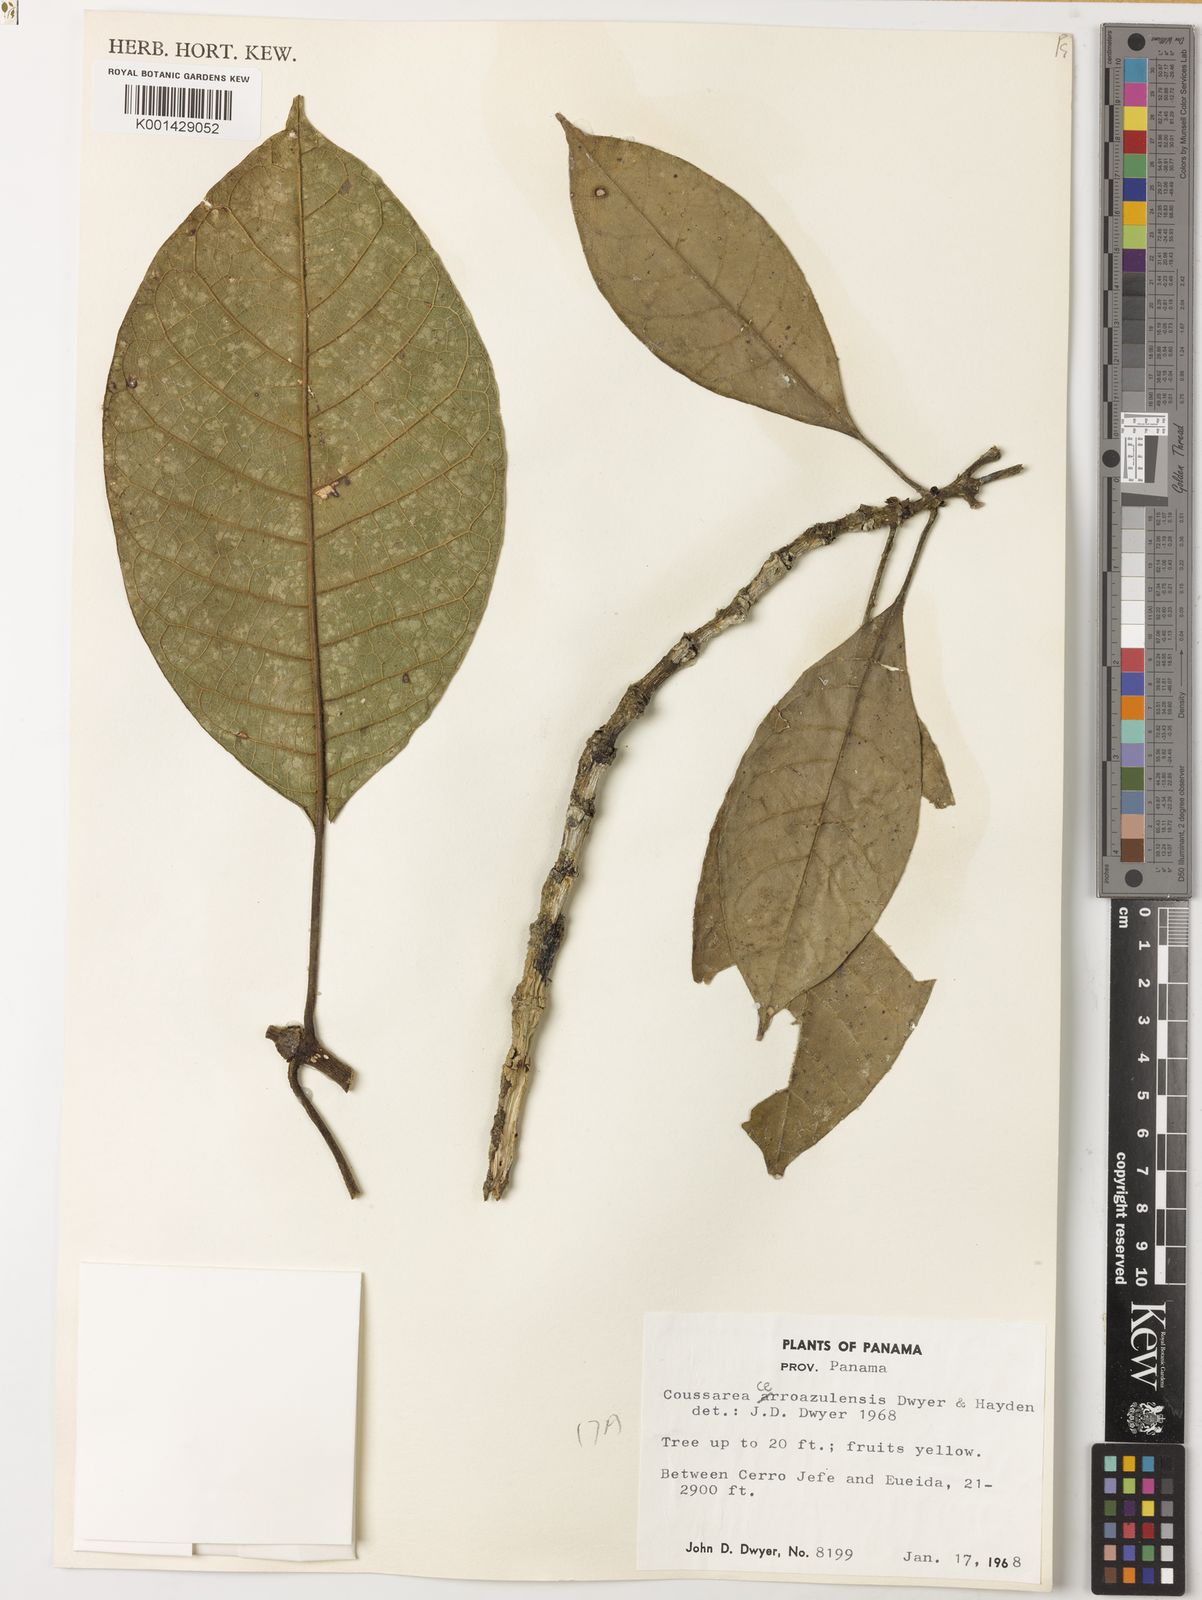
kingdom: Plantae
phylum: Tracheophyta
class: Magnoliopsida
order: Gentianales
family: Rubiaceae
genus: Coussarea
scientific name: Coussarea cerroazulensis
